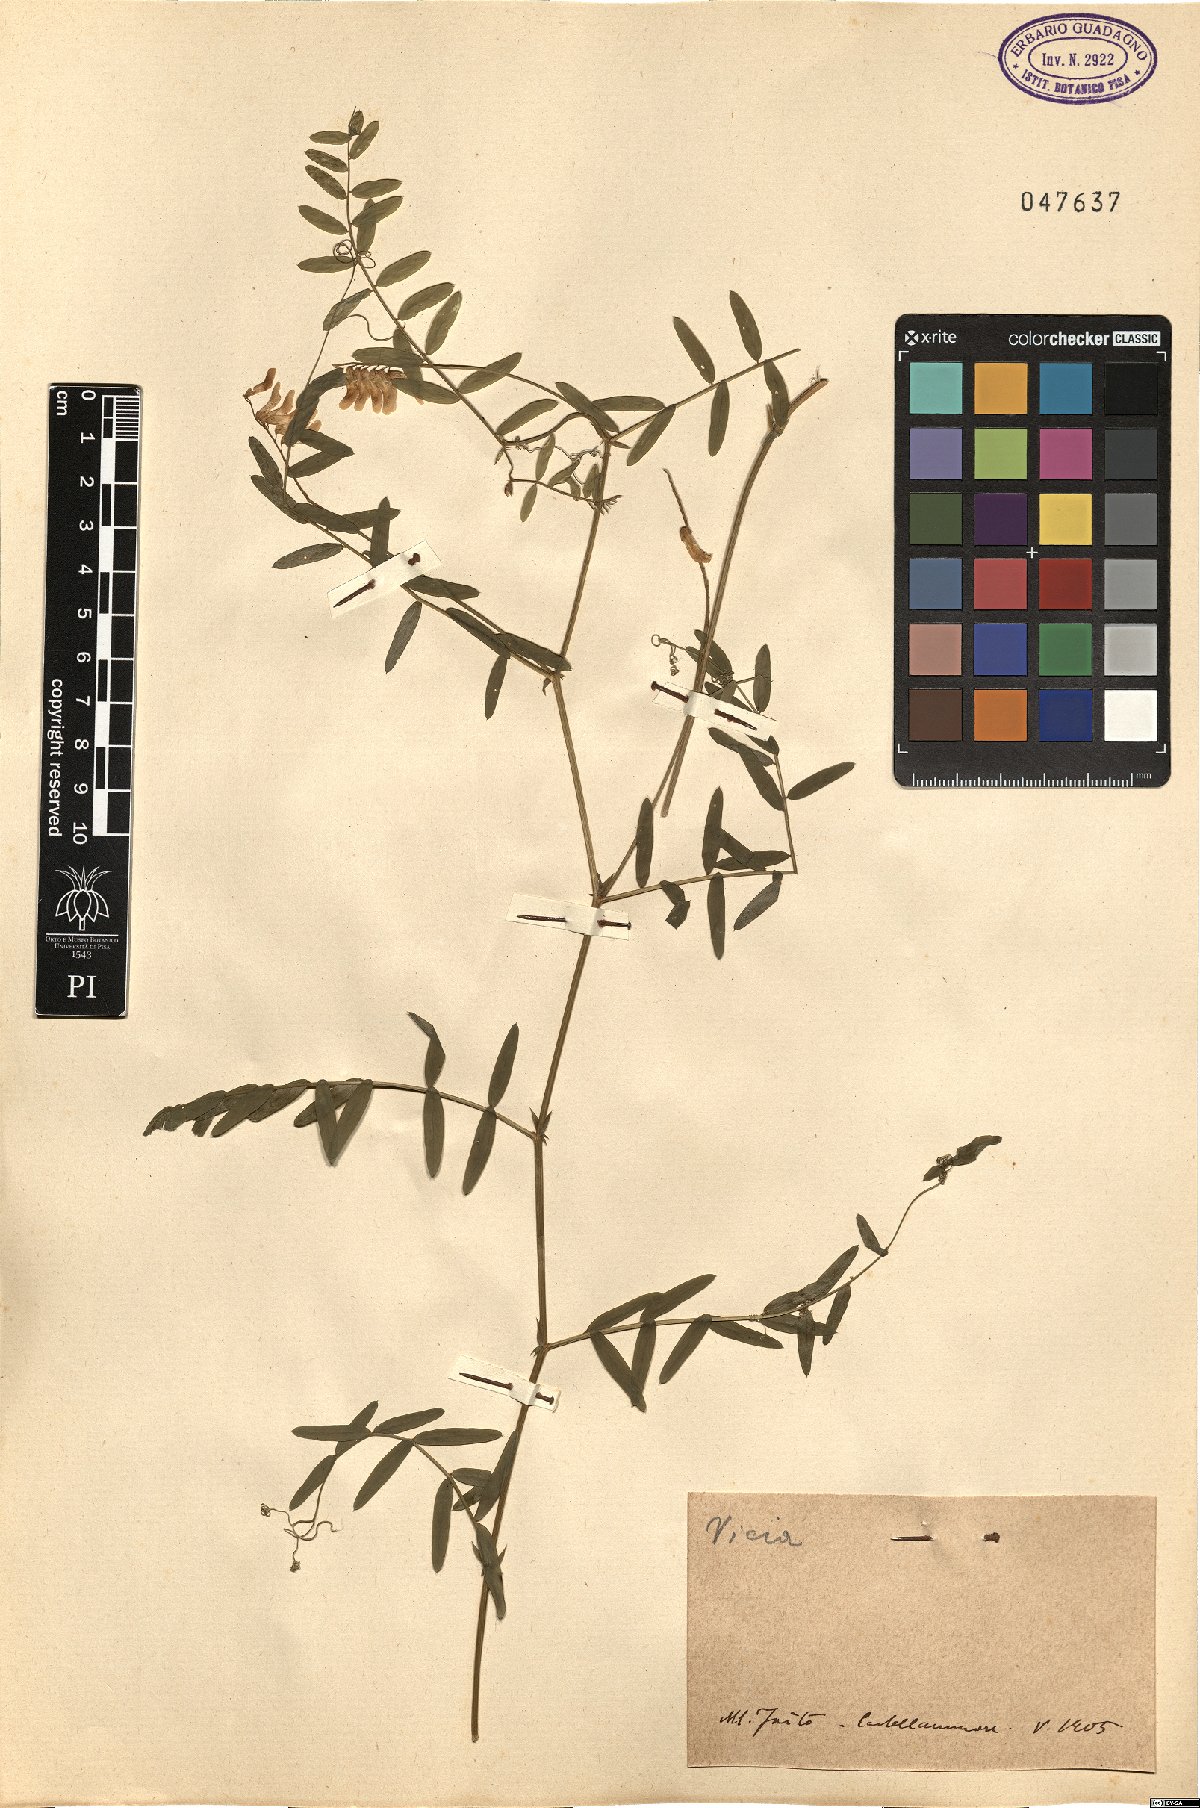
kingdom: Plantae
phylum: Tracheophyta
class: Magnoliopsida
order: Fabales
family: Fabaceae
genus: Vicia
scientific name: Vicia
